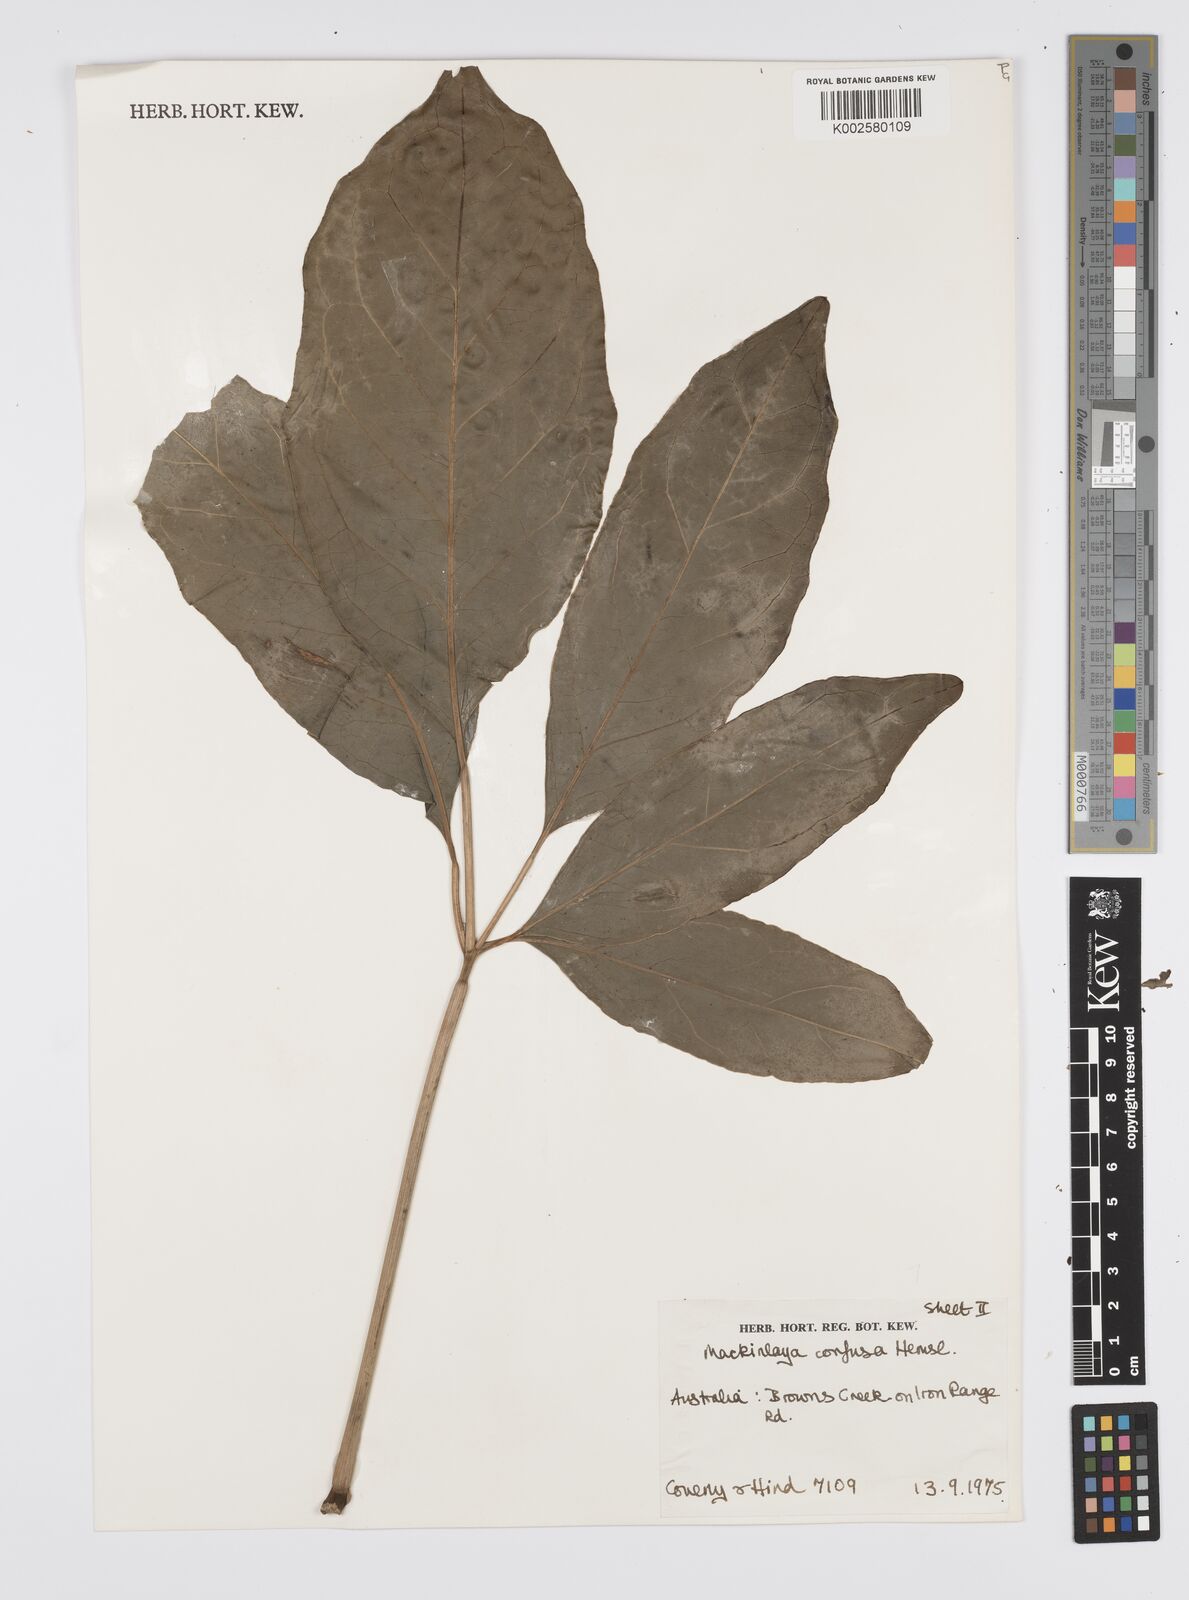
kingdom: Plantae
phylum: Tracheophyta
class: Magnoliopsida
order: Apiales
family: Apiaceae
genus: Mackinlaya
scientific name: Mackinlaya confusa
